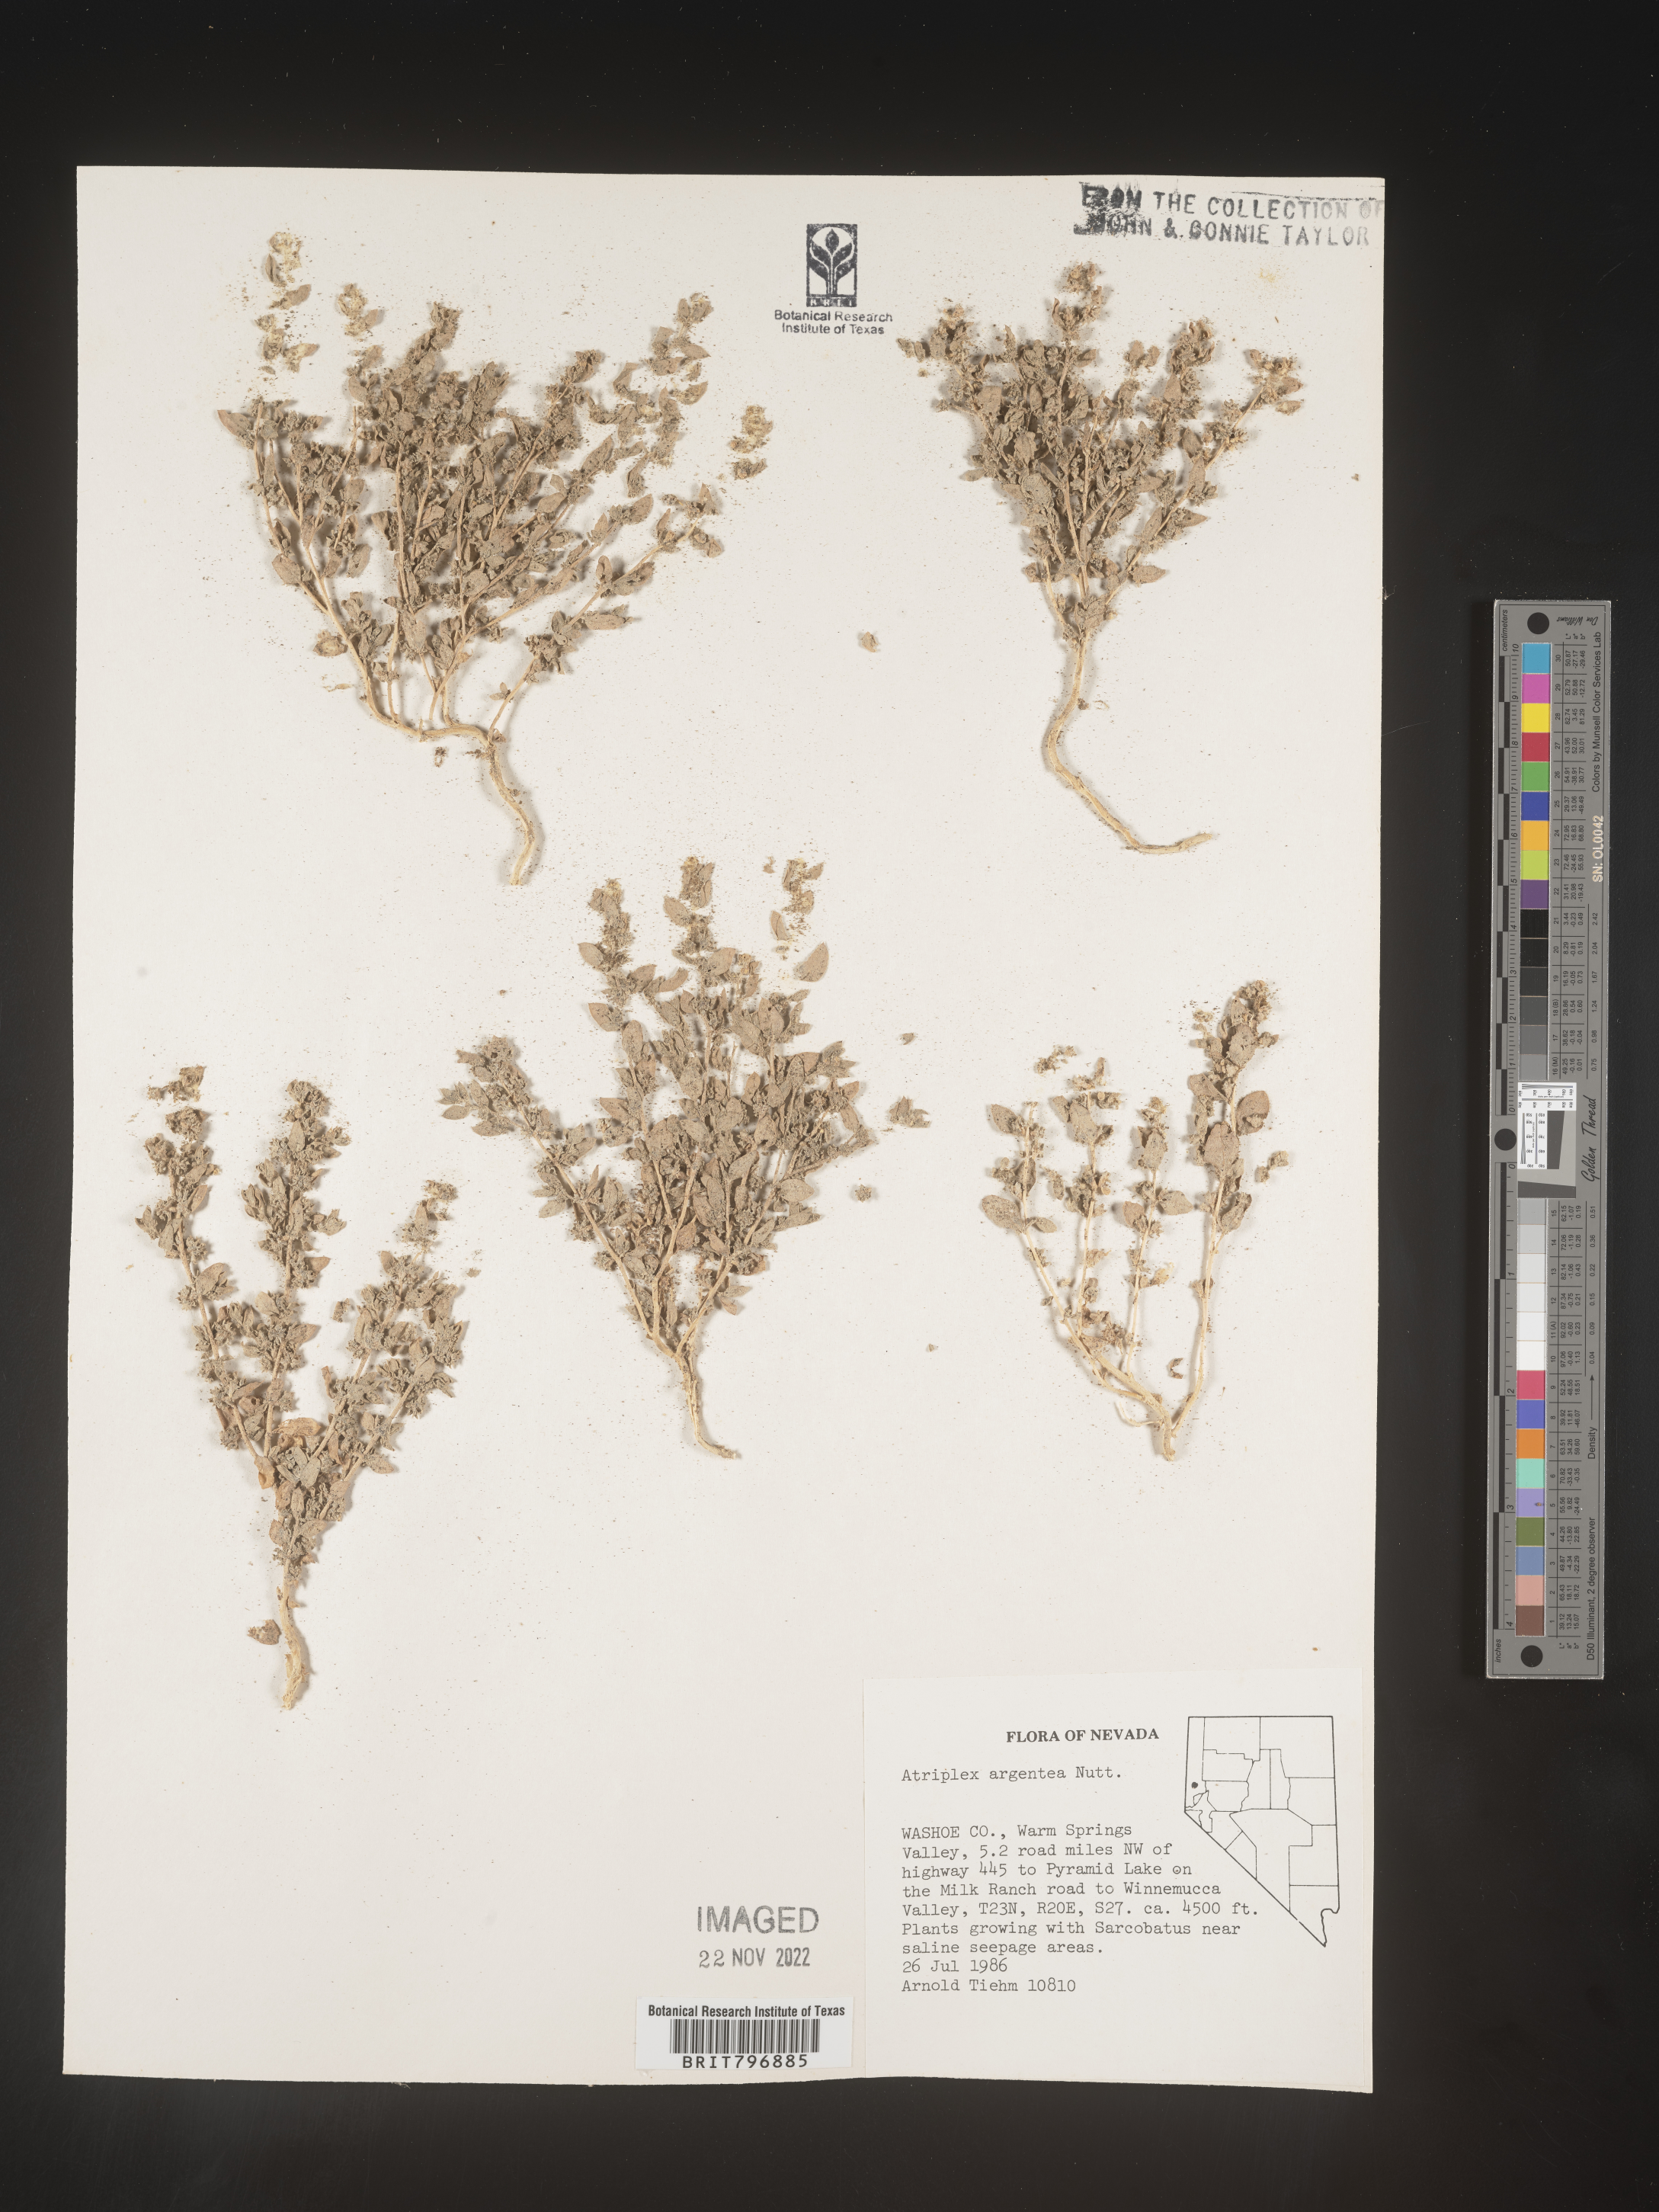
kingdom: Plantae
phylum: Tracheophyta
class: Magnoliopsida
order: Caryophyllales
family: Amaranthaceae
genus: Atriplex
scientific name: Atriplex argentea
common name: Silverscale
